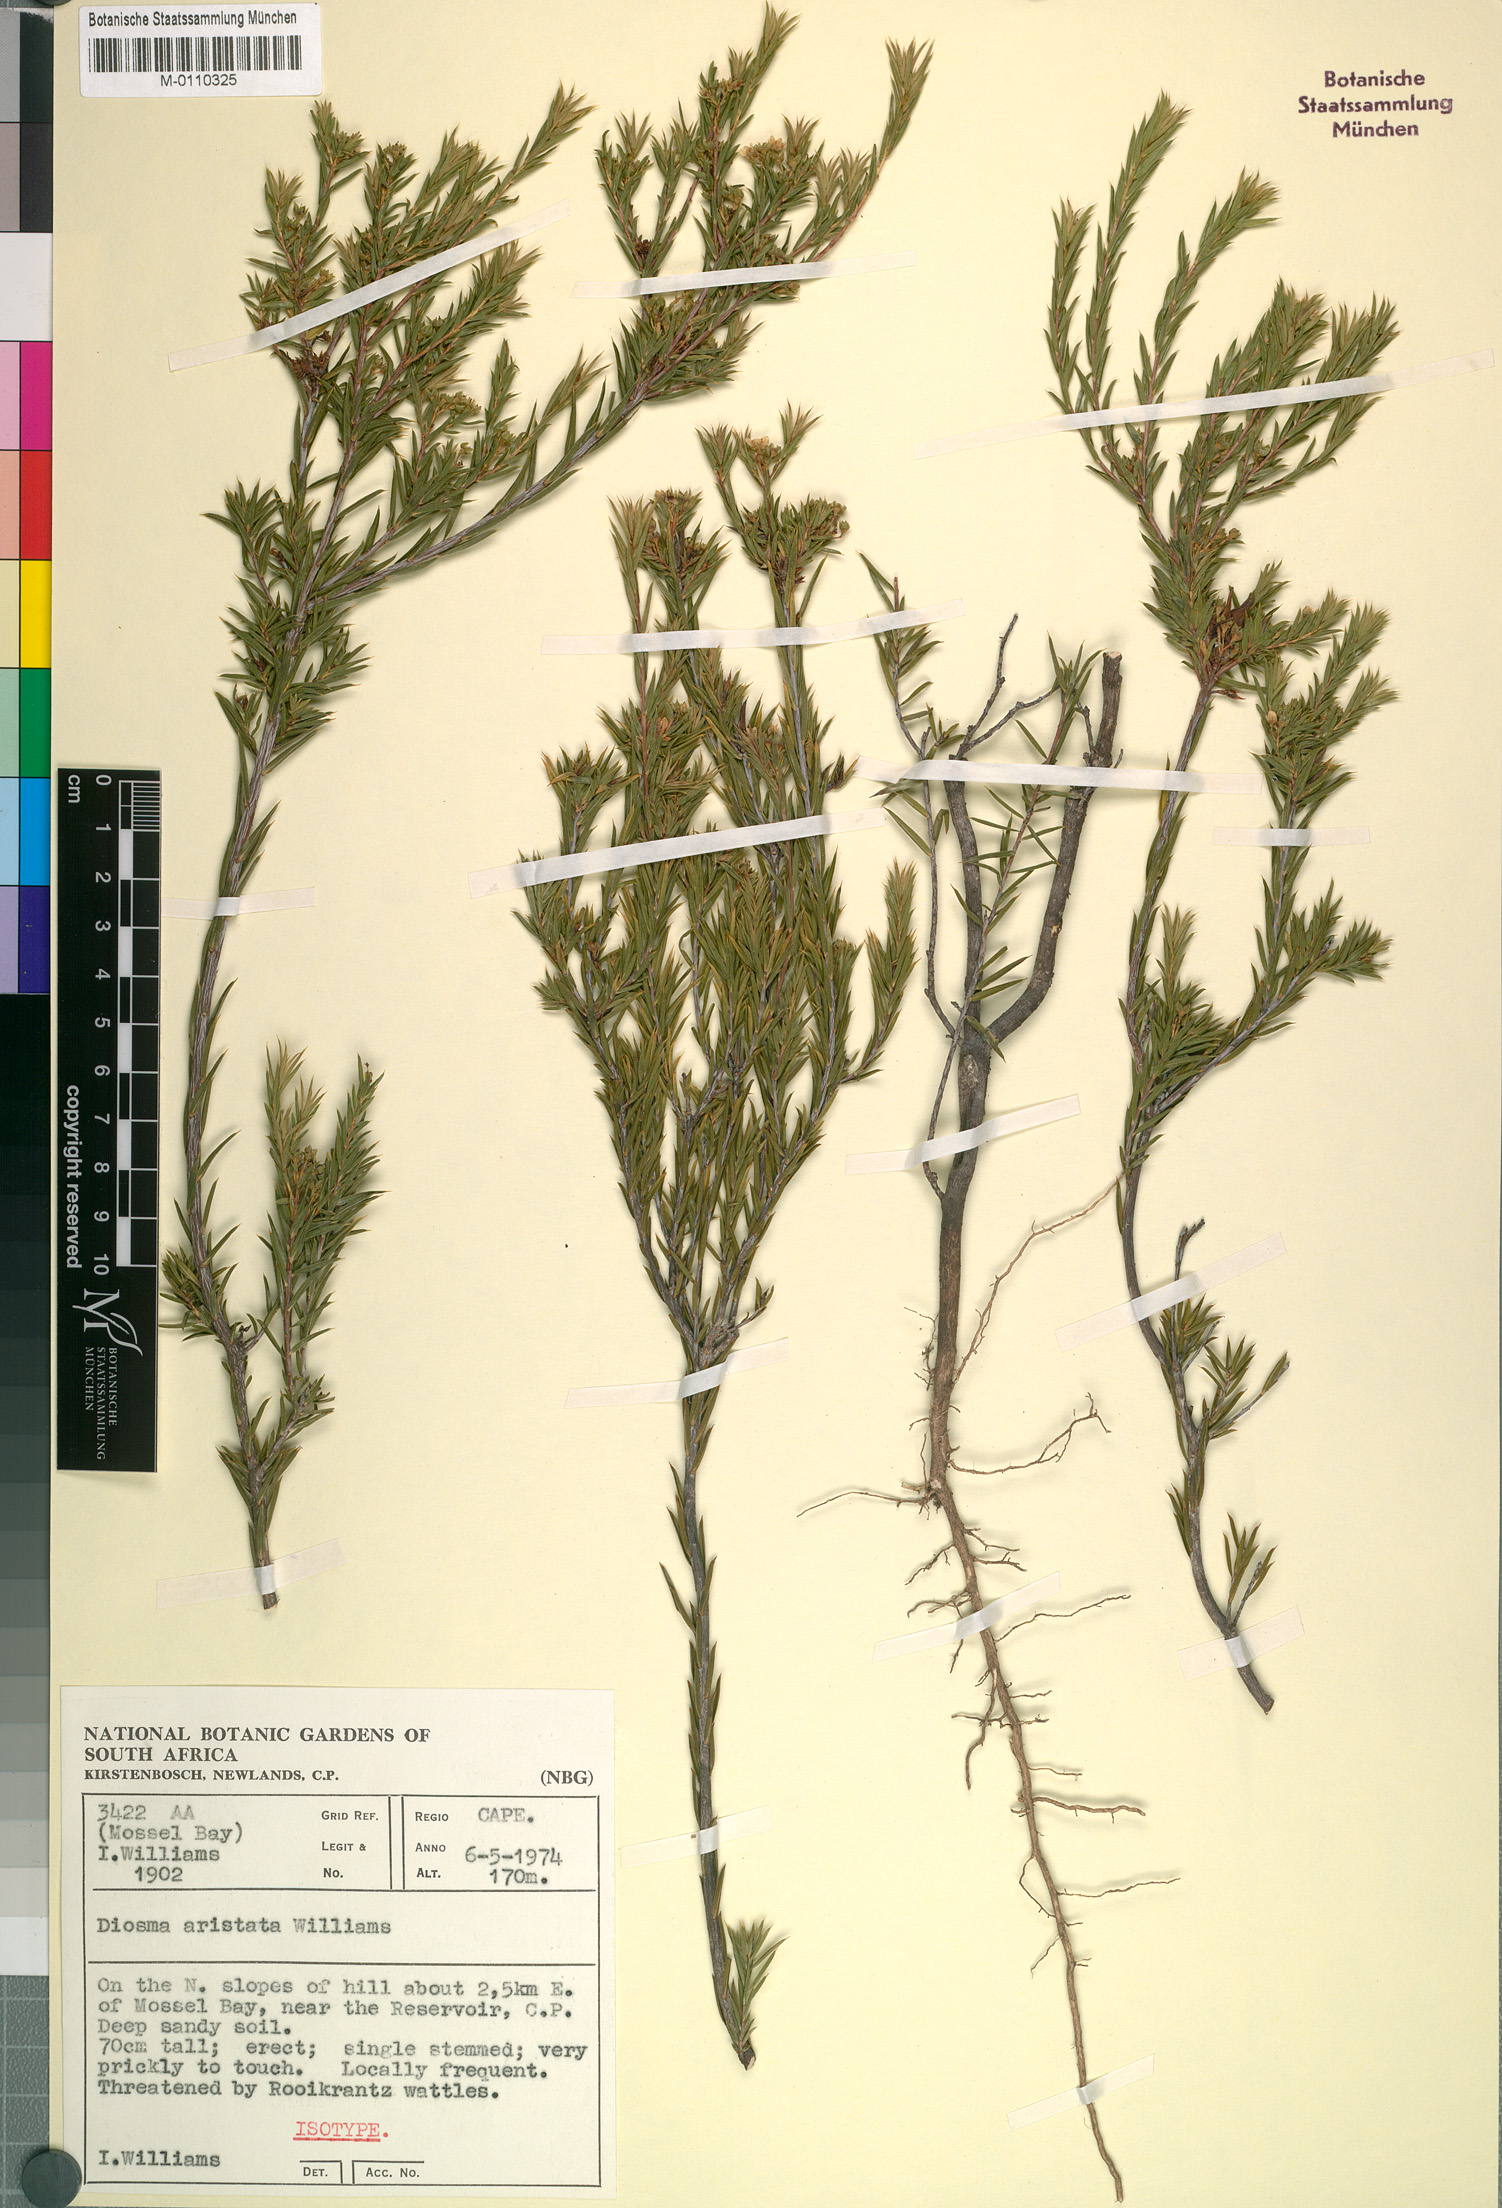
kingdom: Plantae
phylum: Tracheophyta
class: Magnoliopsida
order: Sapindales
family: Rutaceae
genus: Diosma
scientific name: Diosma aristata
